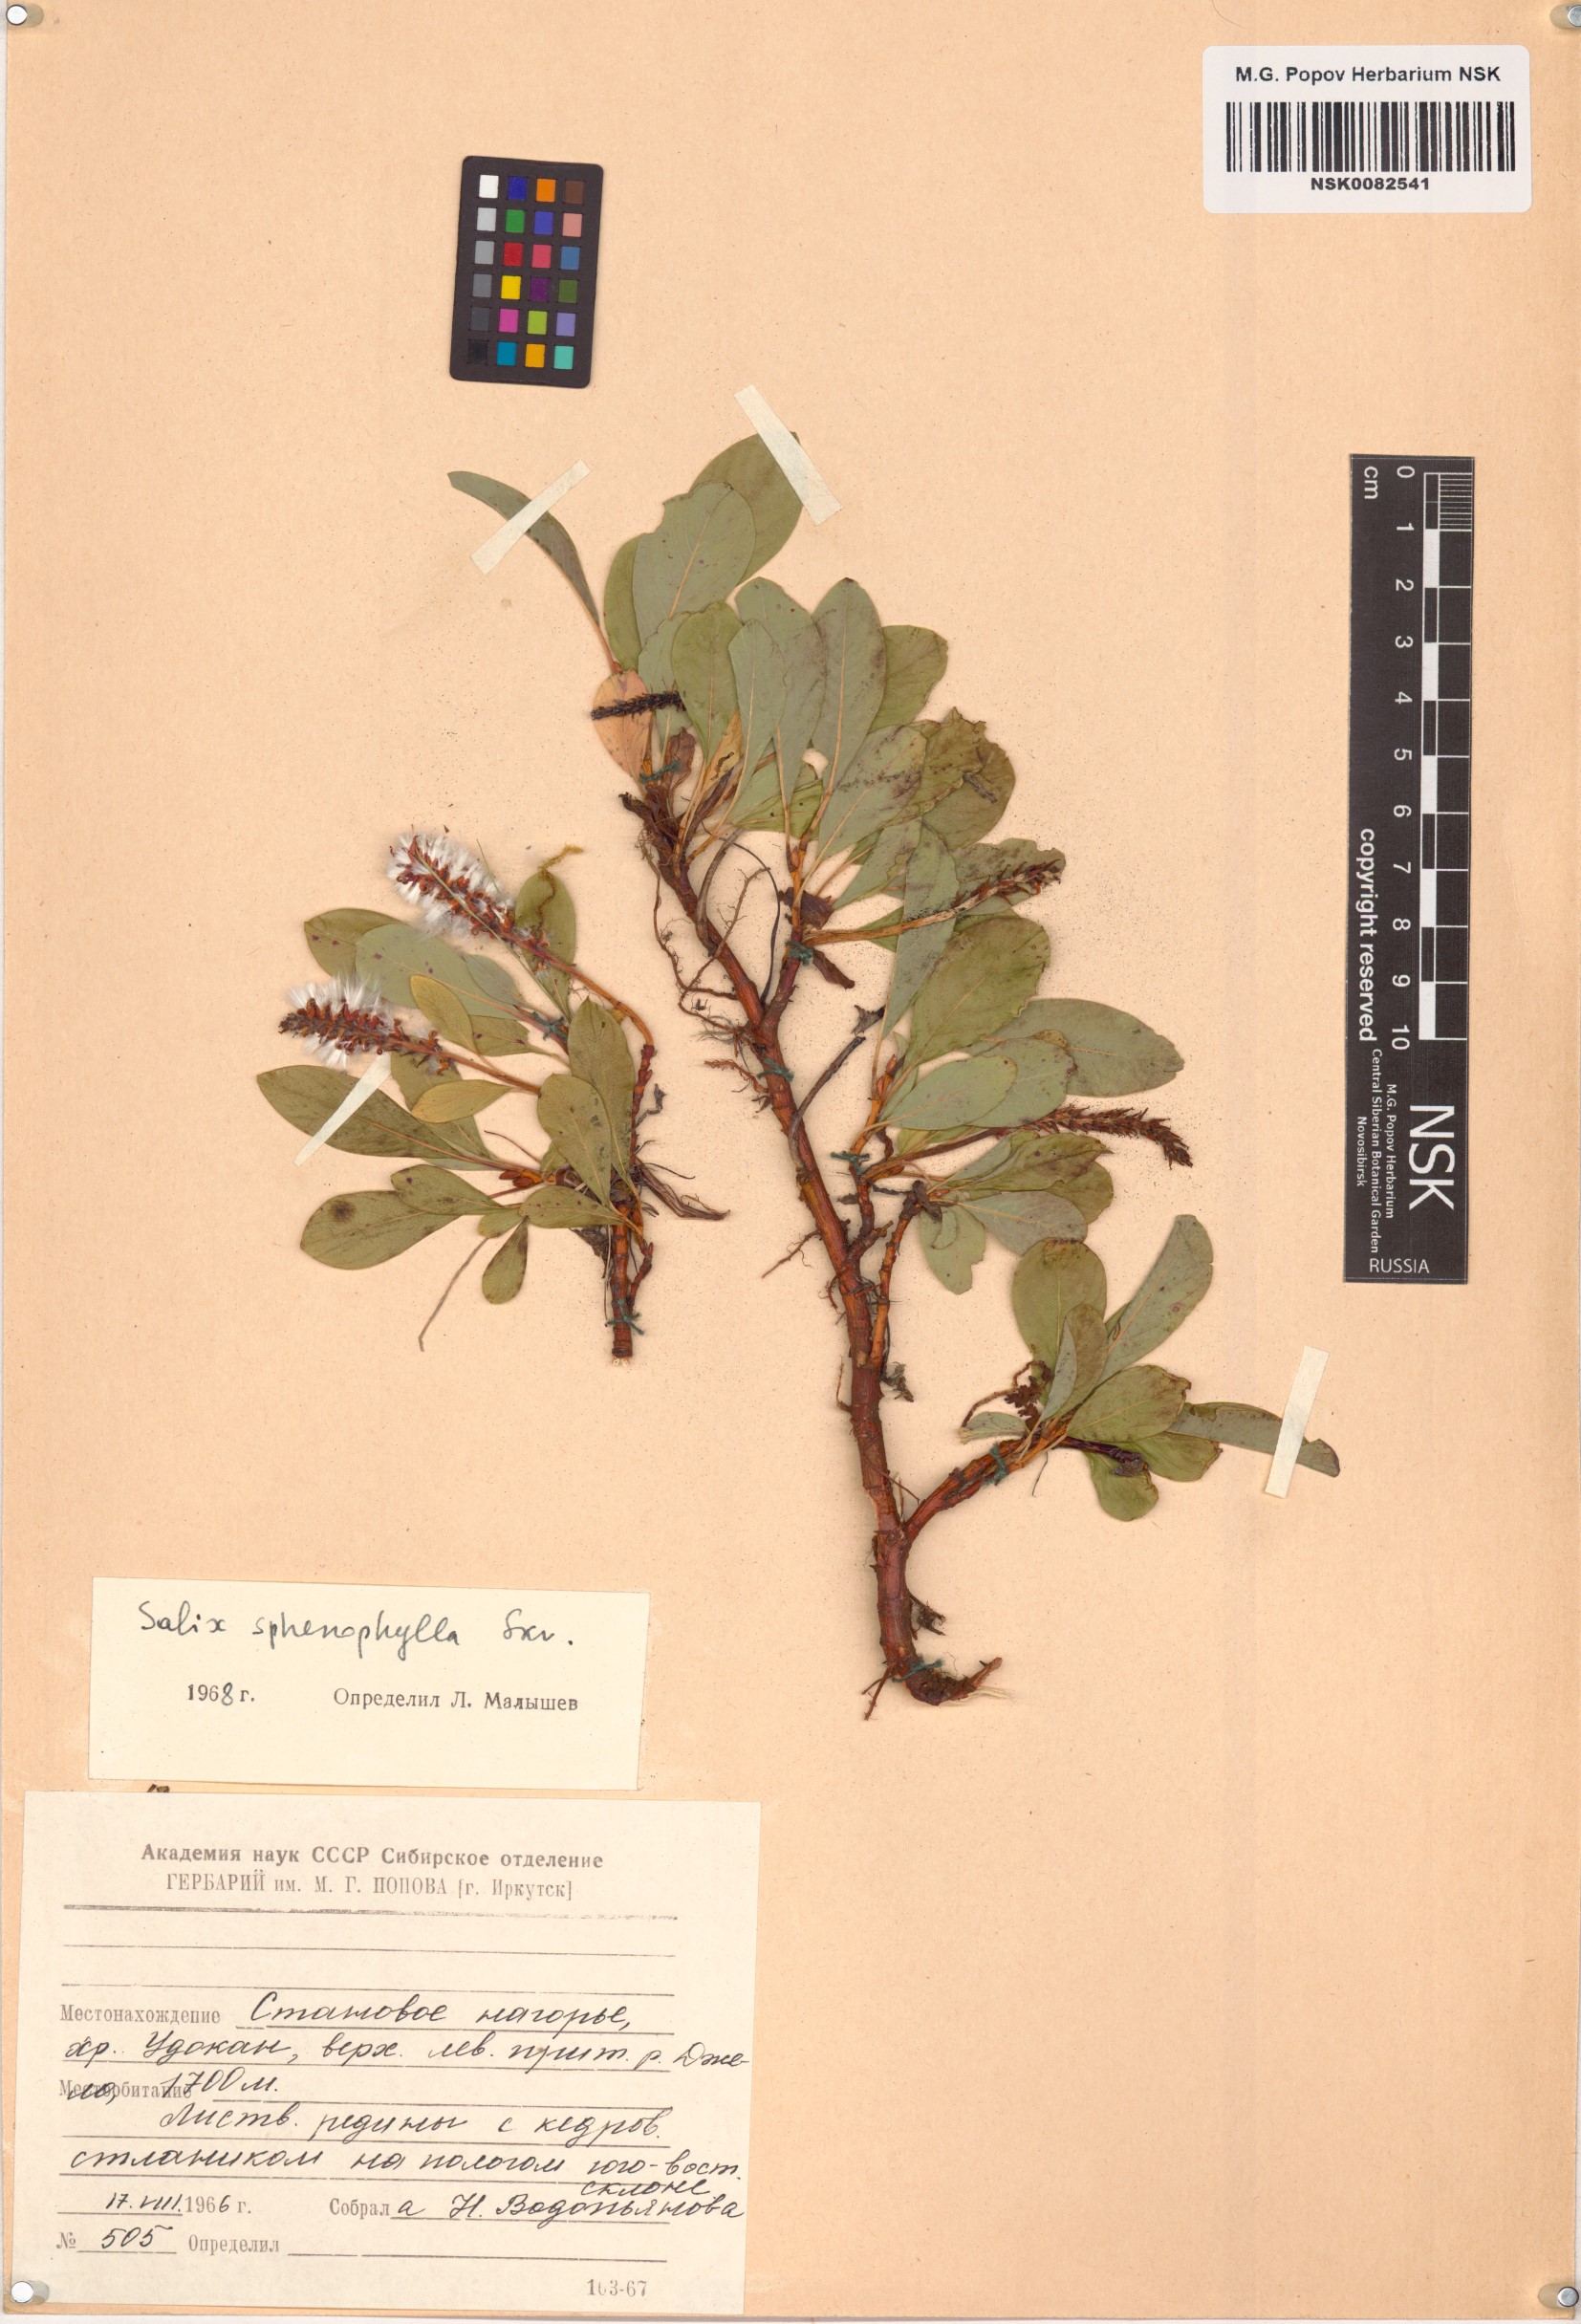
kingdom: Plantae
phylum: Tracheophyta
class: Magnoliopsida
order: Malpighiales
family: Salicaceae
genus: Salix
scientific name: Salix sphenophylla
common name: Wedge-leaved willow
